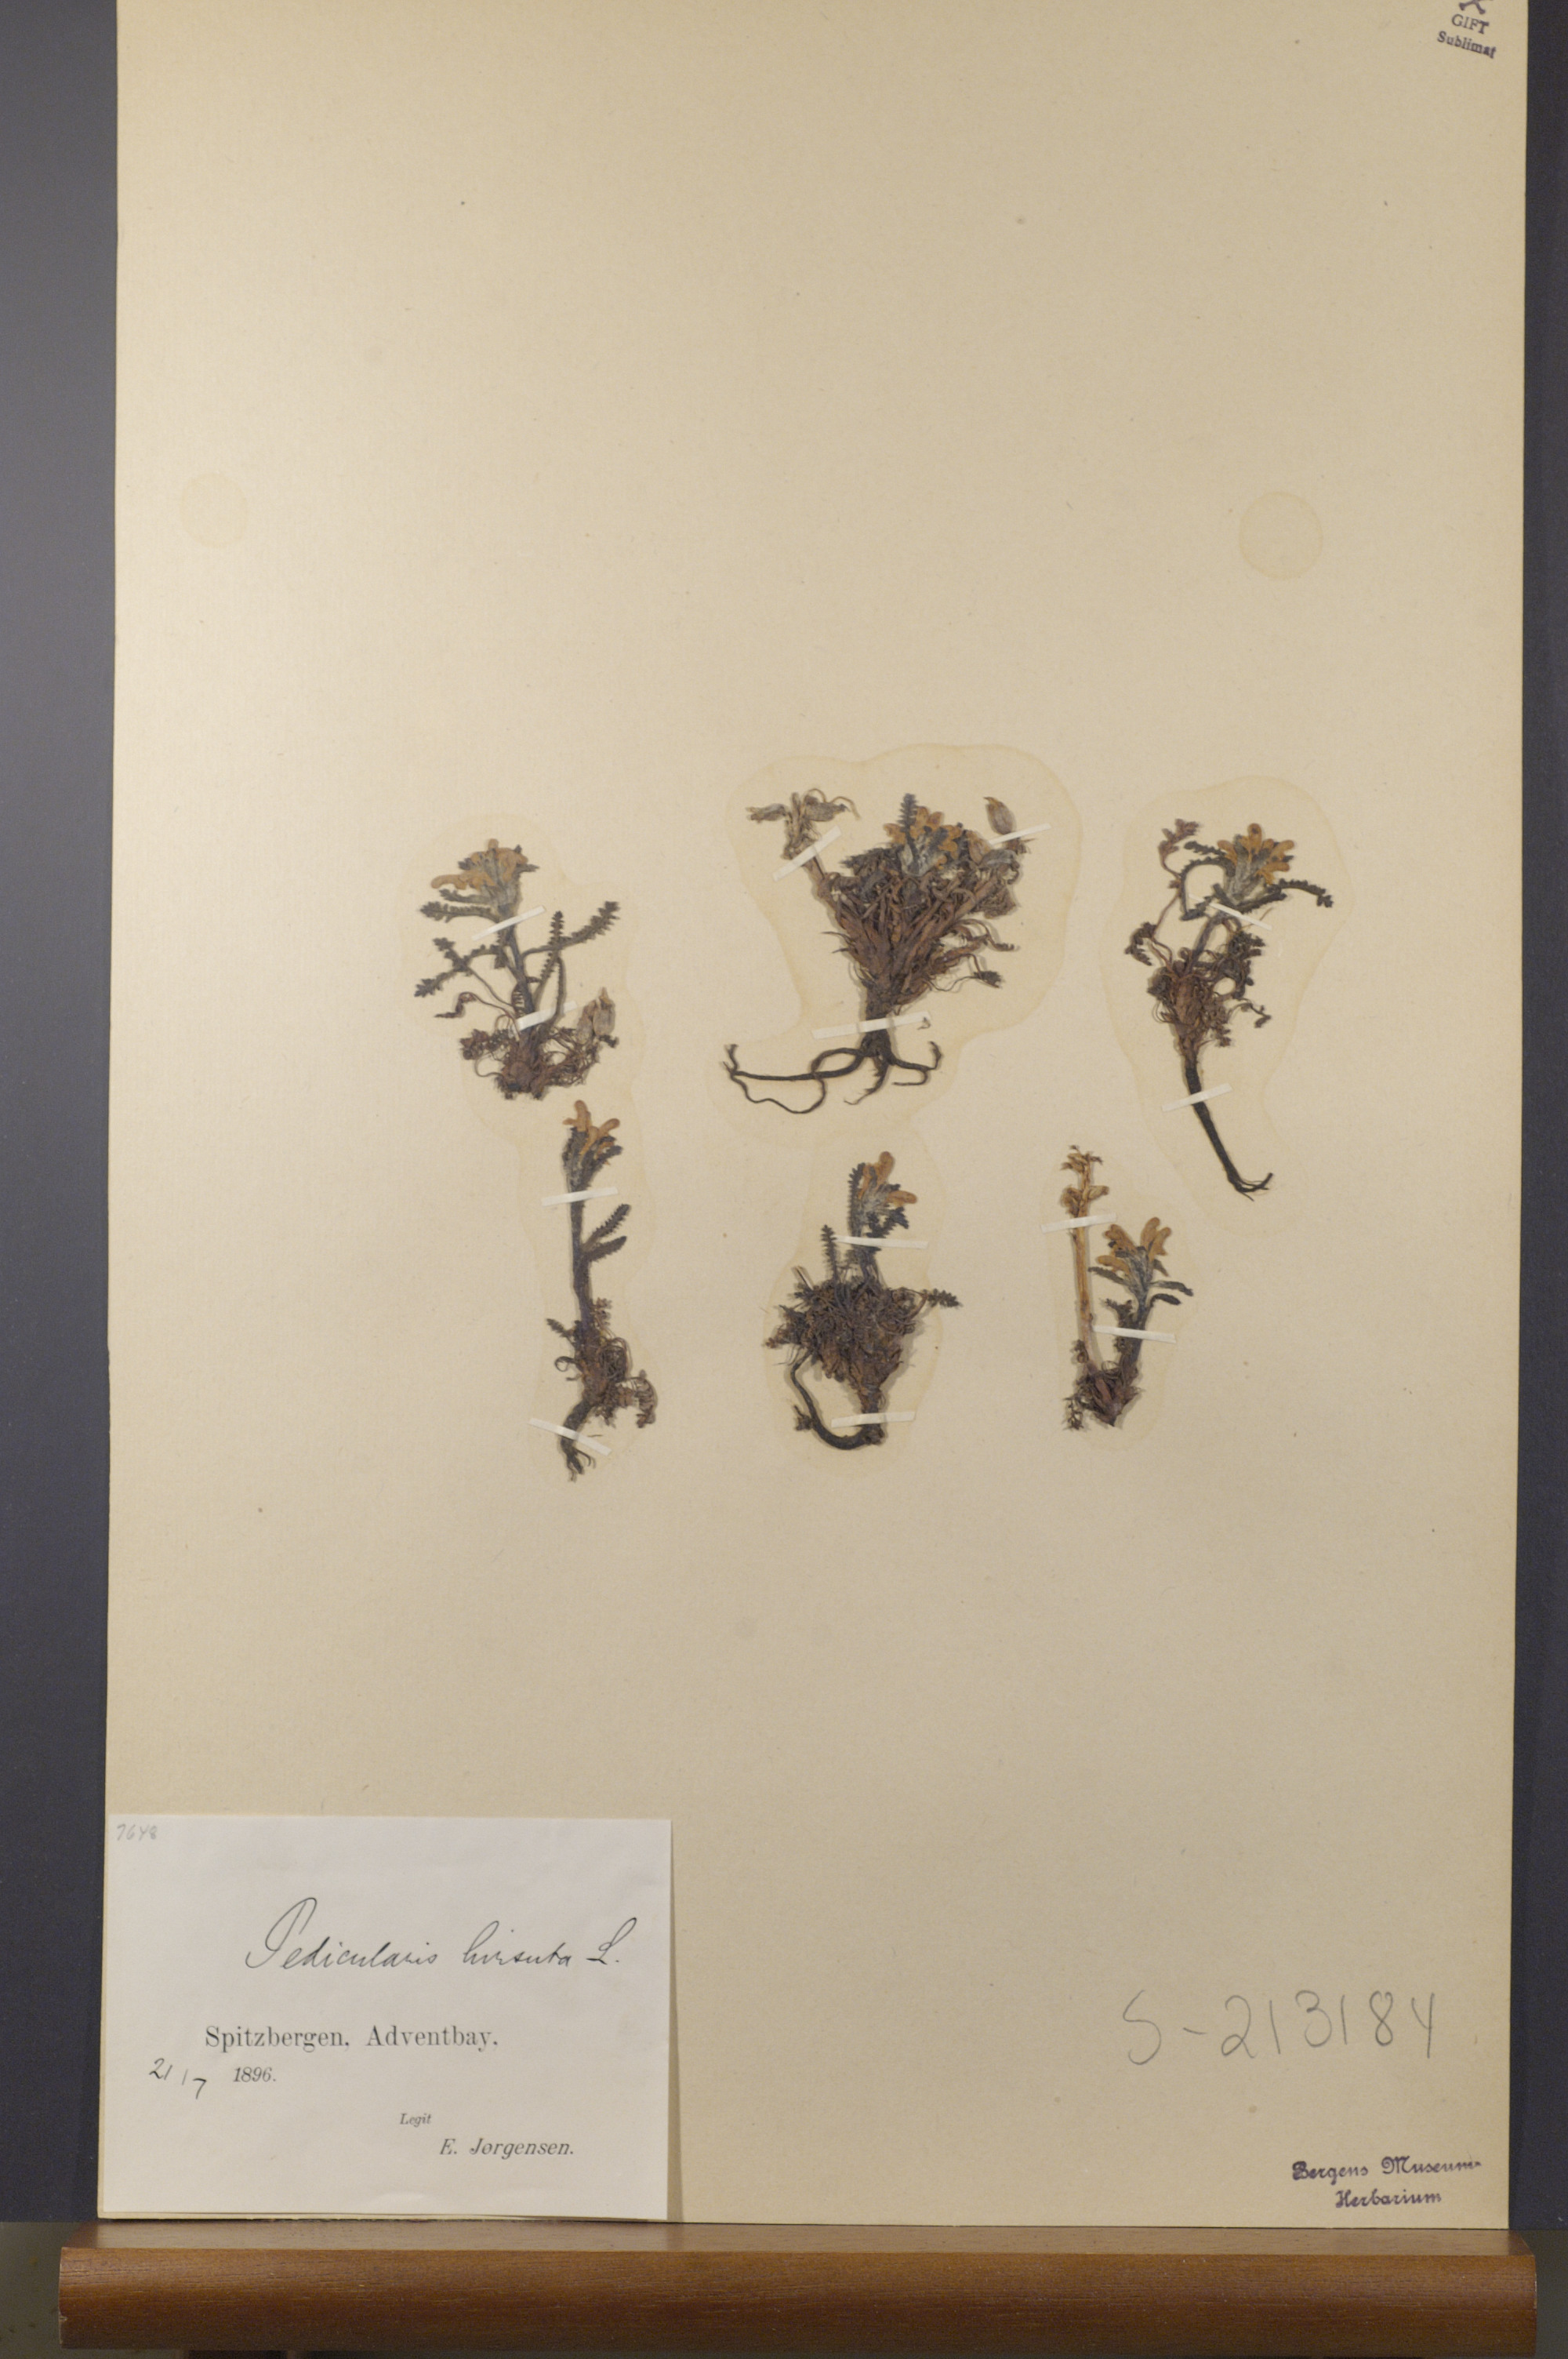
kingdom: Plantae
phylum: Tracheophyta
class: Magnoliopsida
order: Lamiales
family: Orobanchaceae
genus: Pedicularis
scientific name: Pedicularis hirsuta
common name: Hairy lousewort
